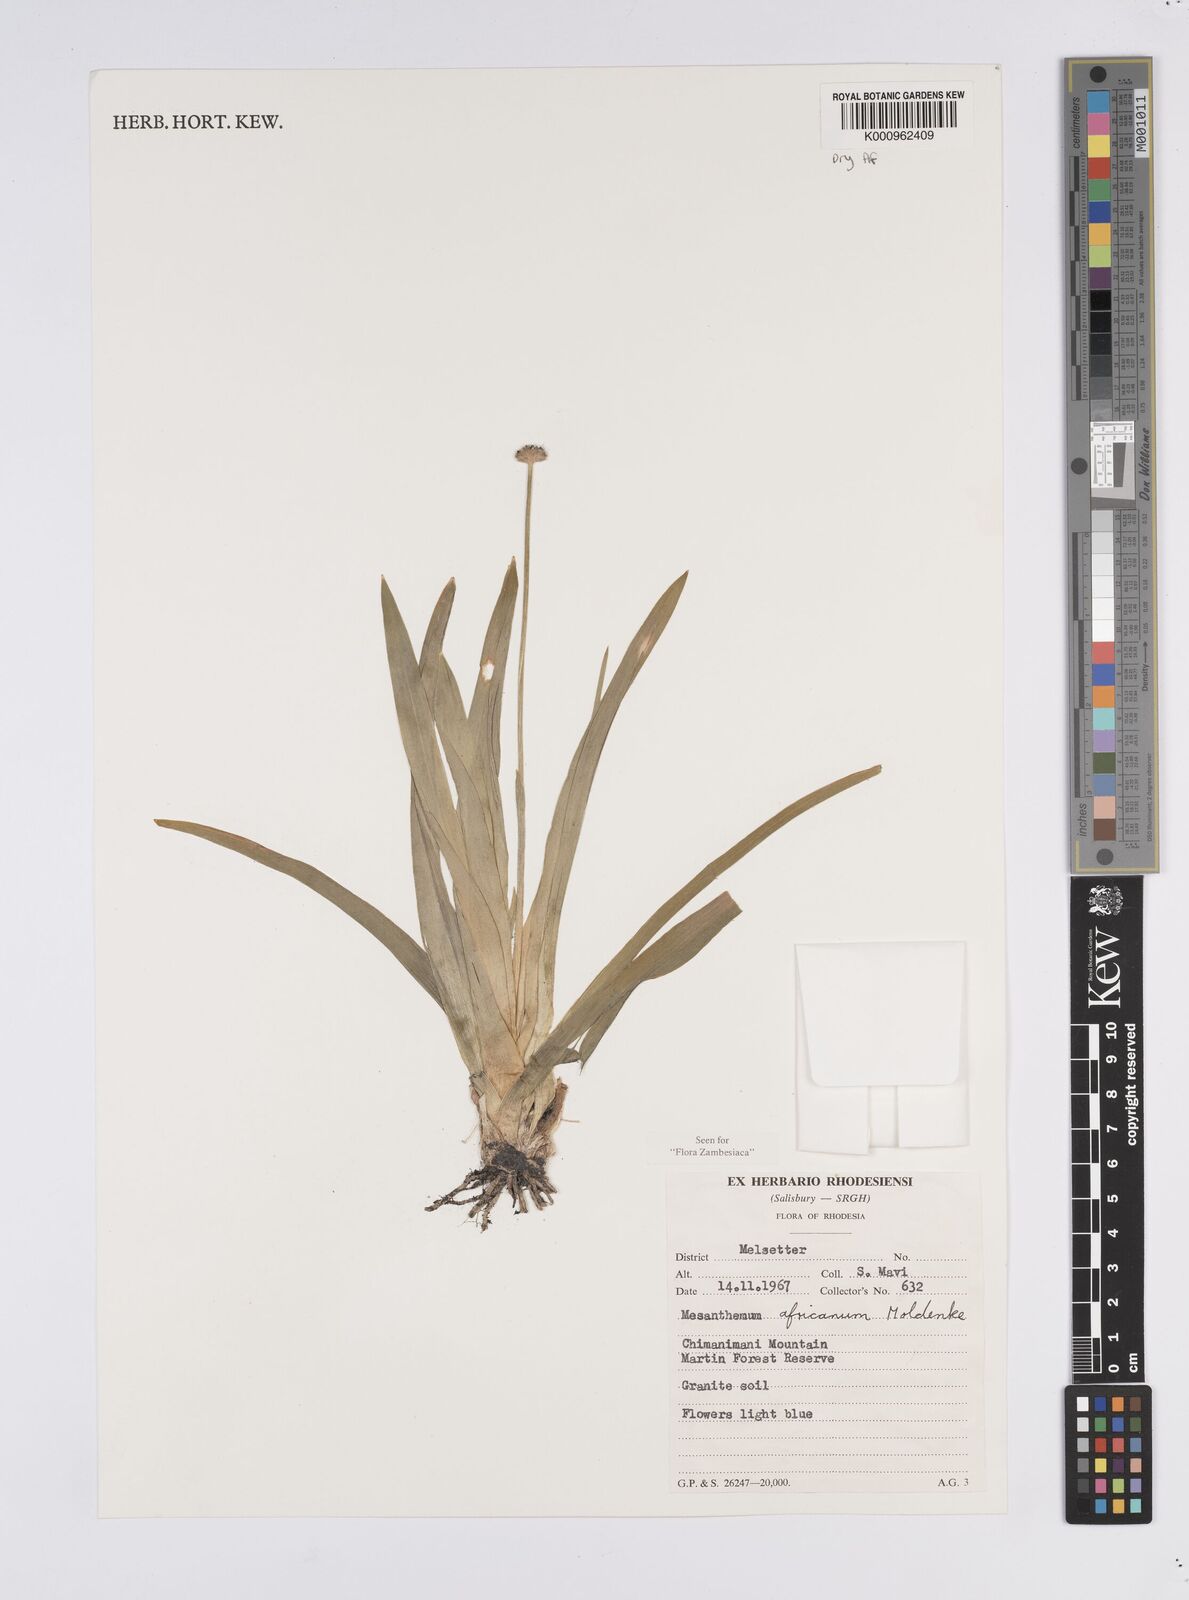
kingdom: Plantae
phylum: Tracheophyta
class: Liliopsida
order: Poales
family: Eriocaulaceae
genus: Mesanthemum
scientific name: Mesanthemum africanum
